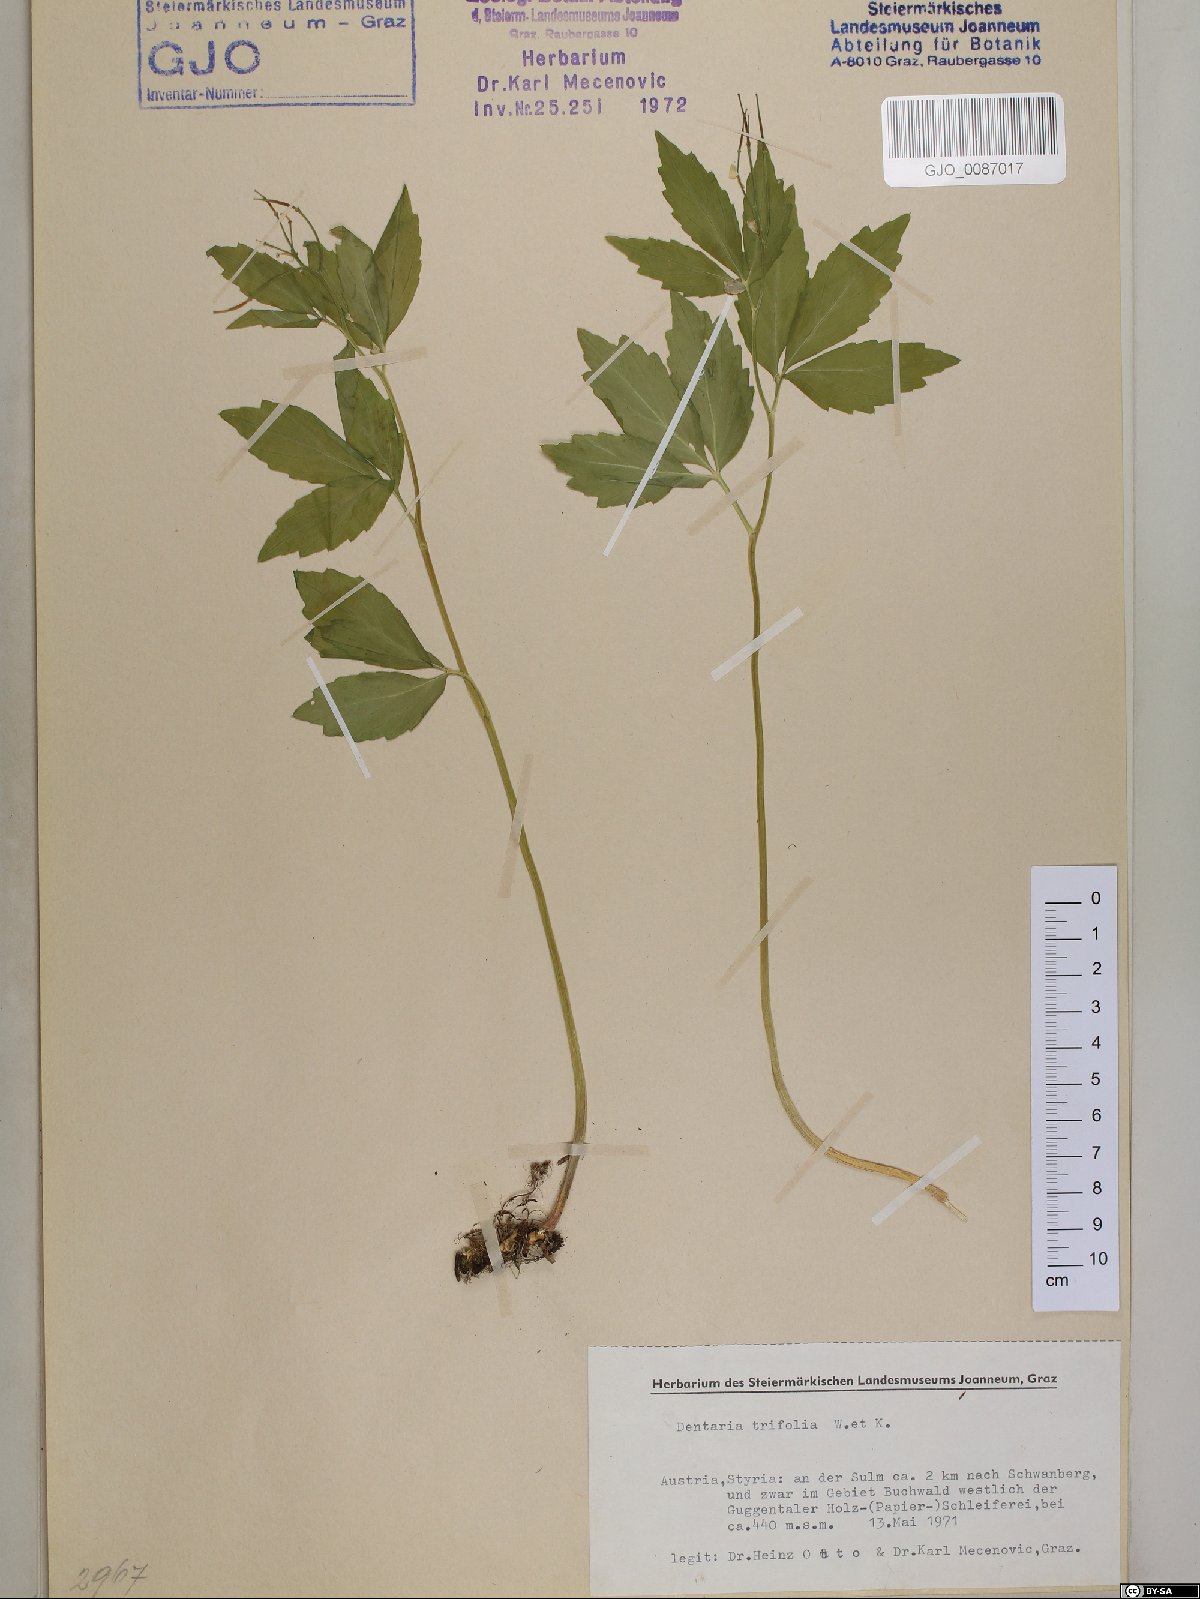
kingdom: Plantae
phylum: Tracheophyta
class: Magnoliopsida
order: Brassicales
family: Brassicaceae
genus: Cardamine
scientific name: Cardamine waldsteinii
